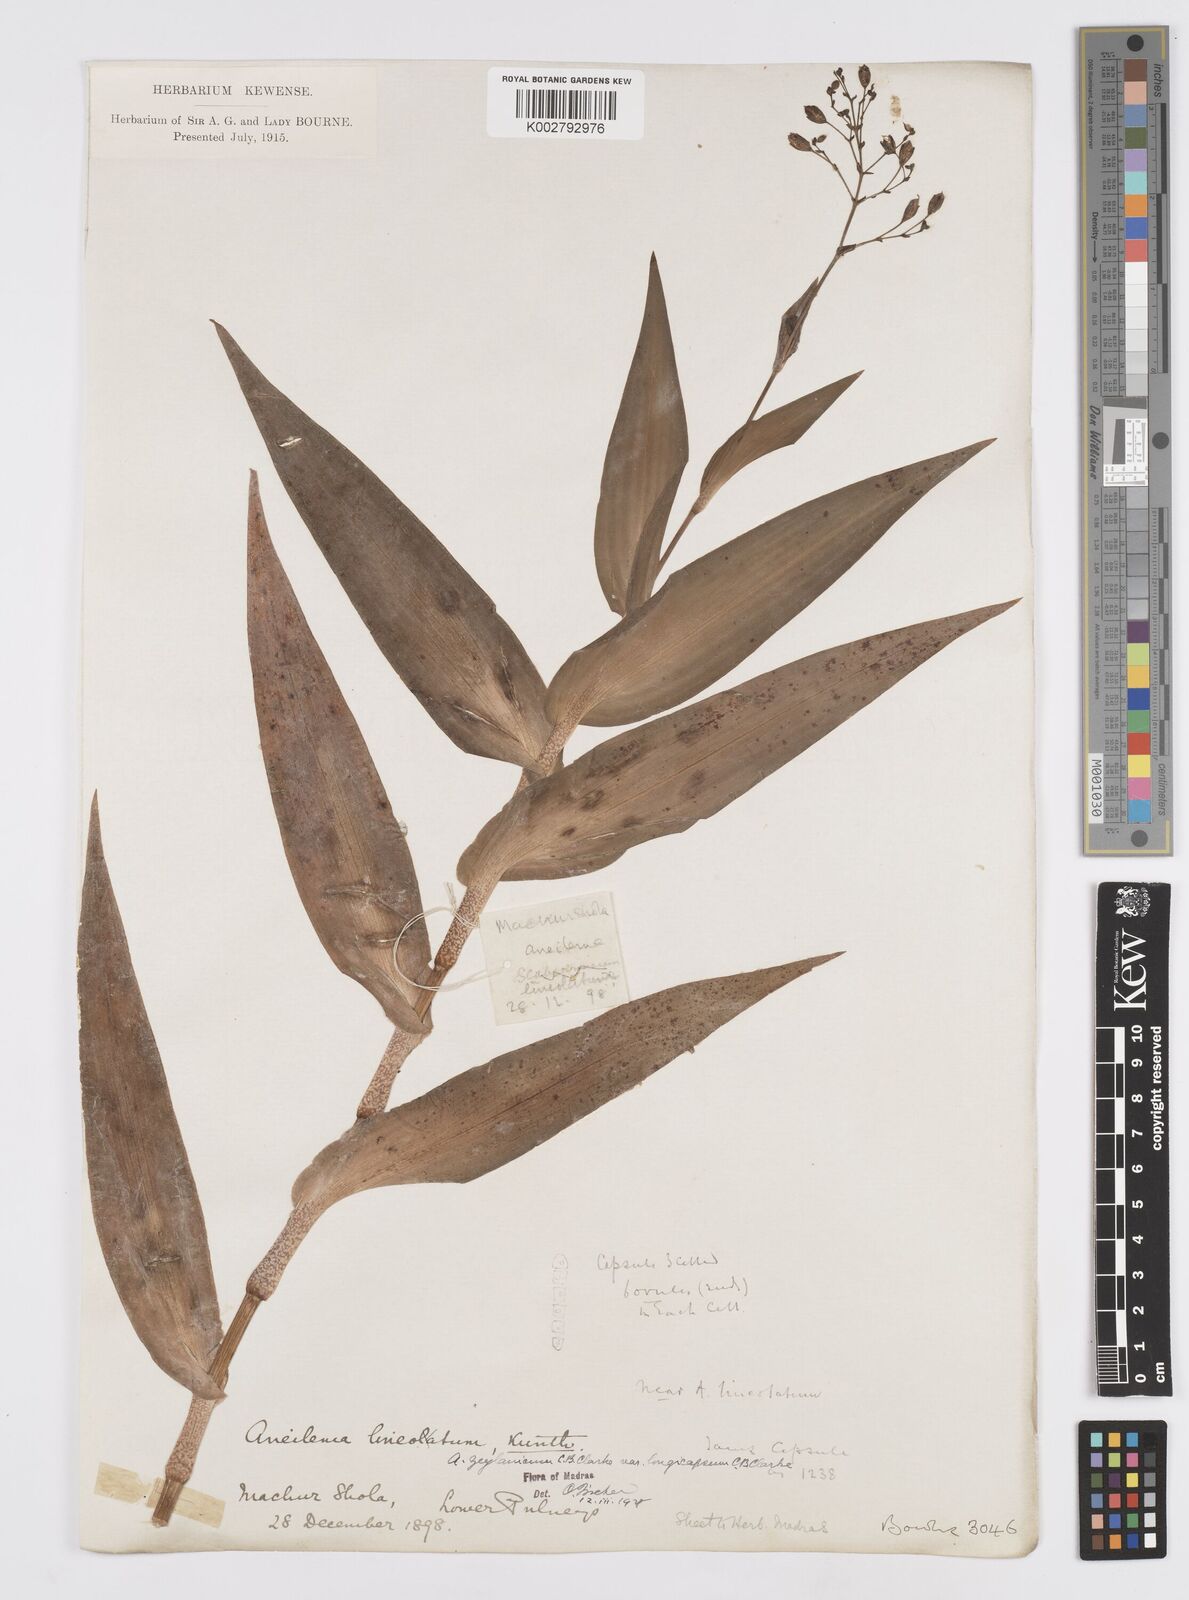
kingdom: Plantae
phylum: Tracheophyta
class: Liliopsida
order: Commelinales
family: Commelinaceae
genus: Murdannia
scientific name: Murdannia zeylanica
